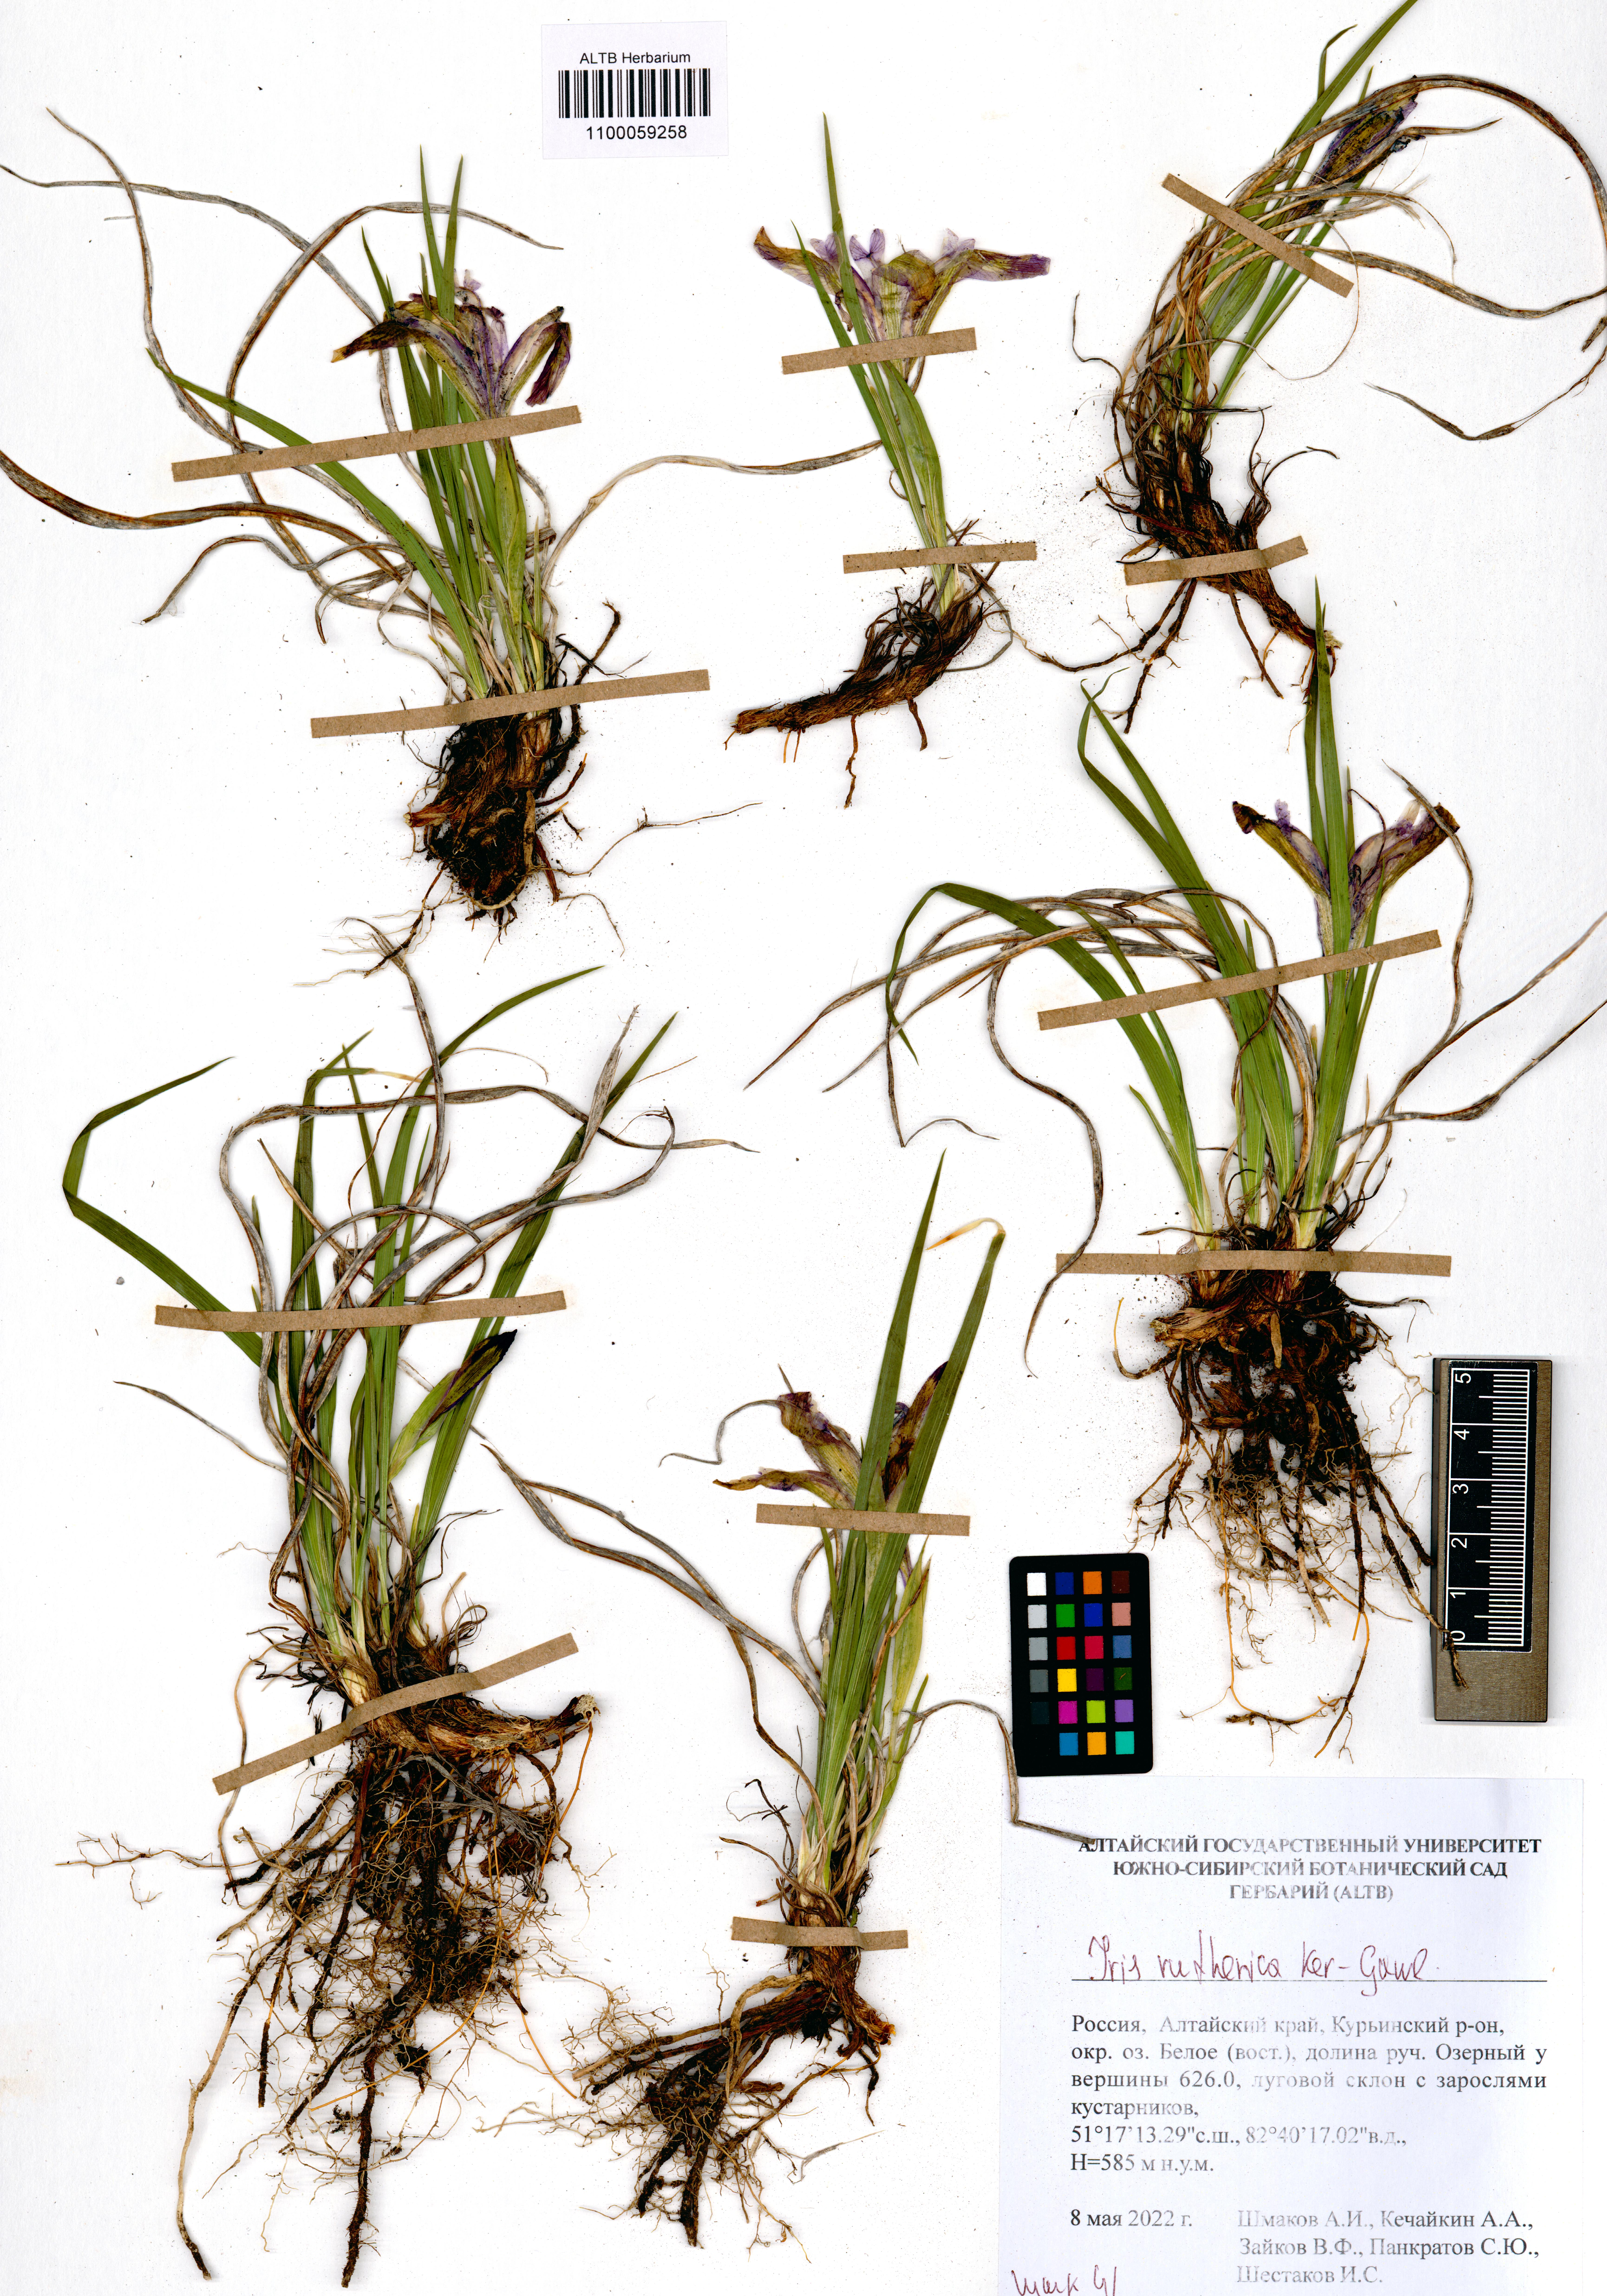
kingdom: Plantae
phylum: Tracheophyta
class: Liliopsida
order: Asparagales
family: Iridaceae
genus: Iris
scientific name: Iris ruthenica
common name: Purple-bract iris
